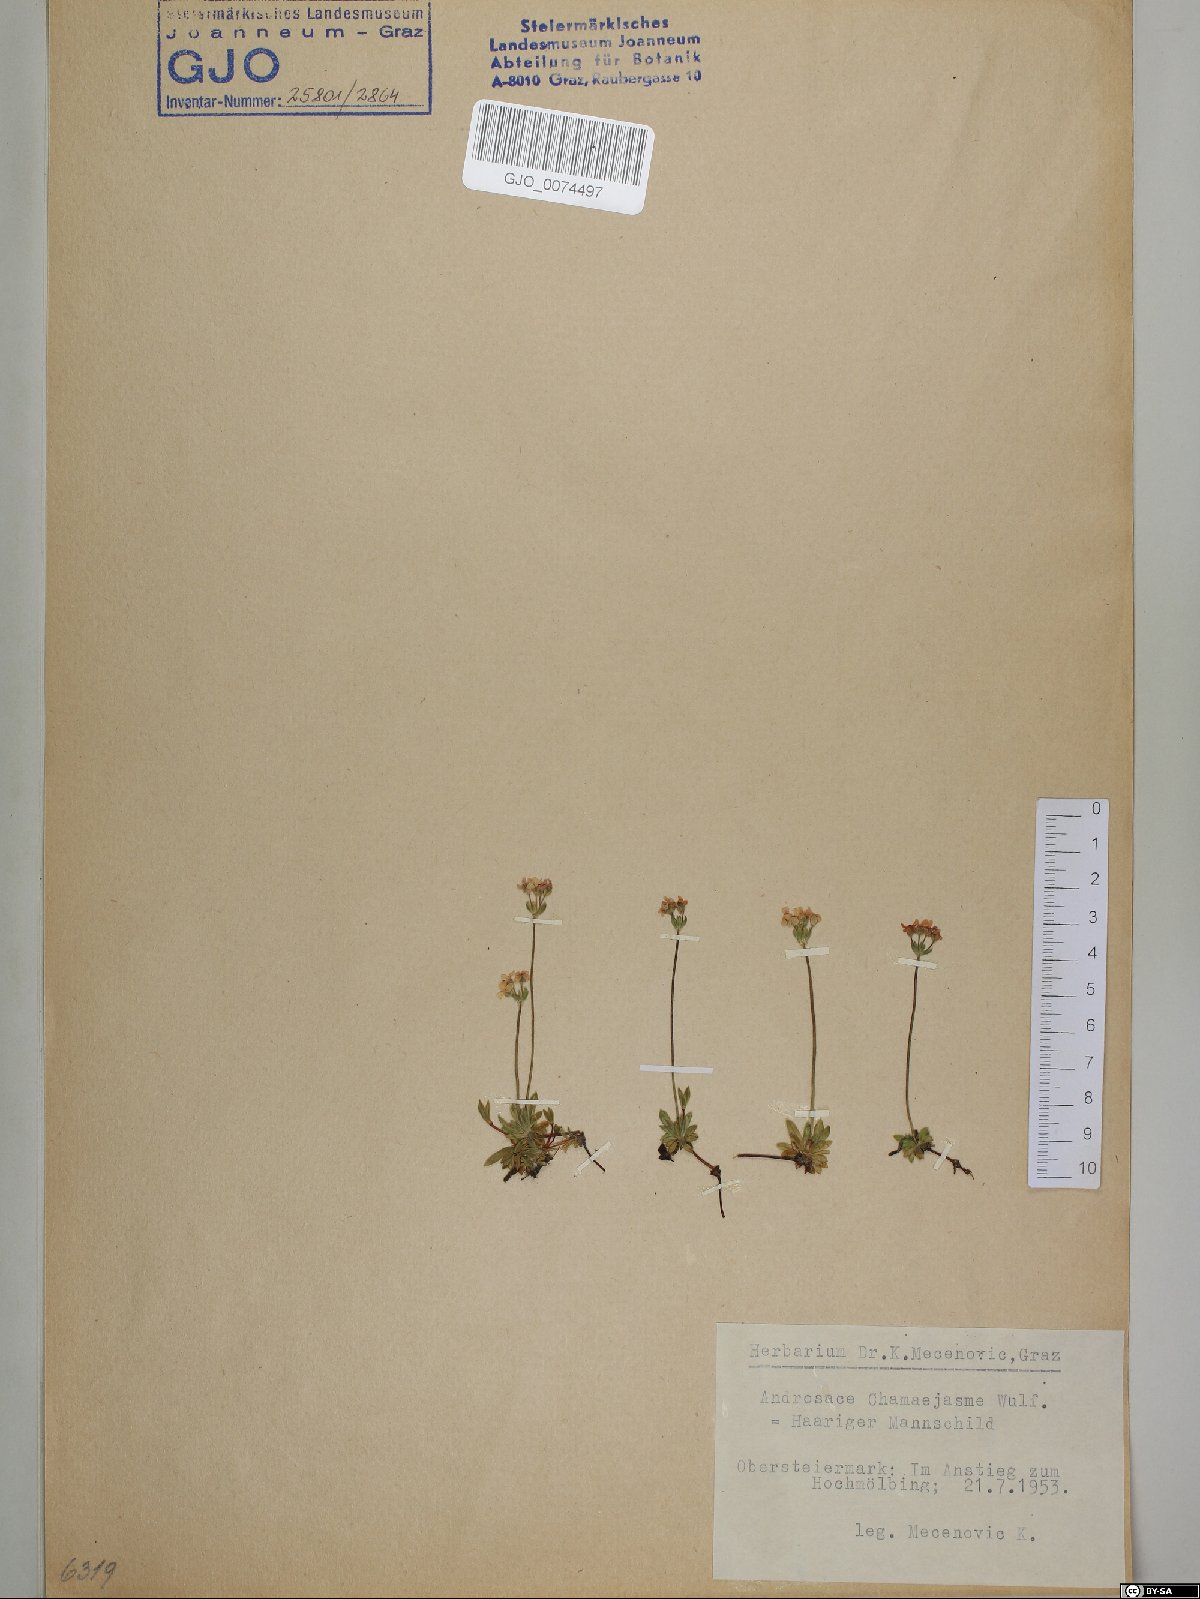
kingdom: Plantae
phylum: Tracheophyta
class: Magnoliopsida
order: Ericales
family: Primulaceae
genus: Androsace
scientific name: Androsace chamaejasme
